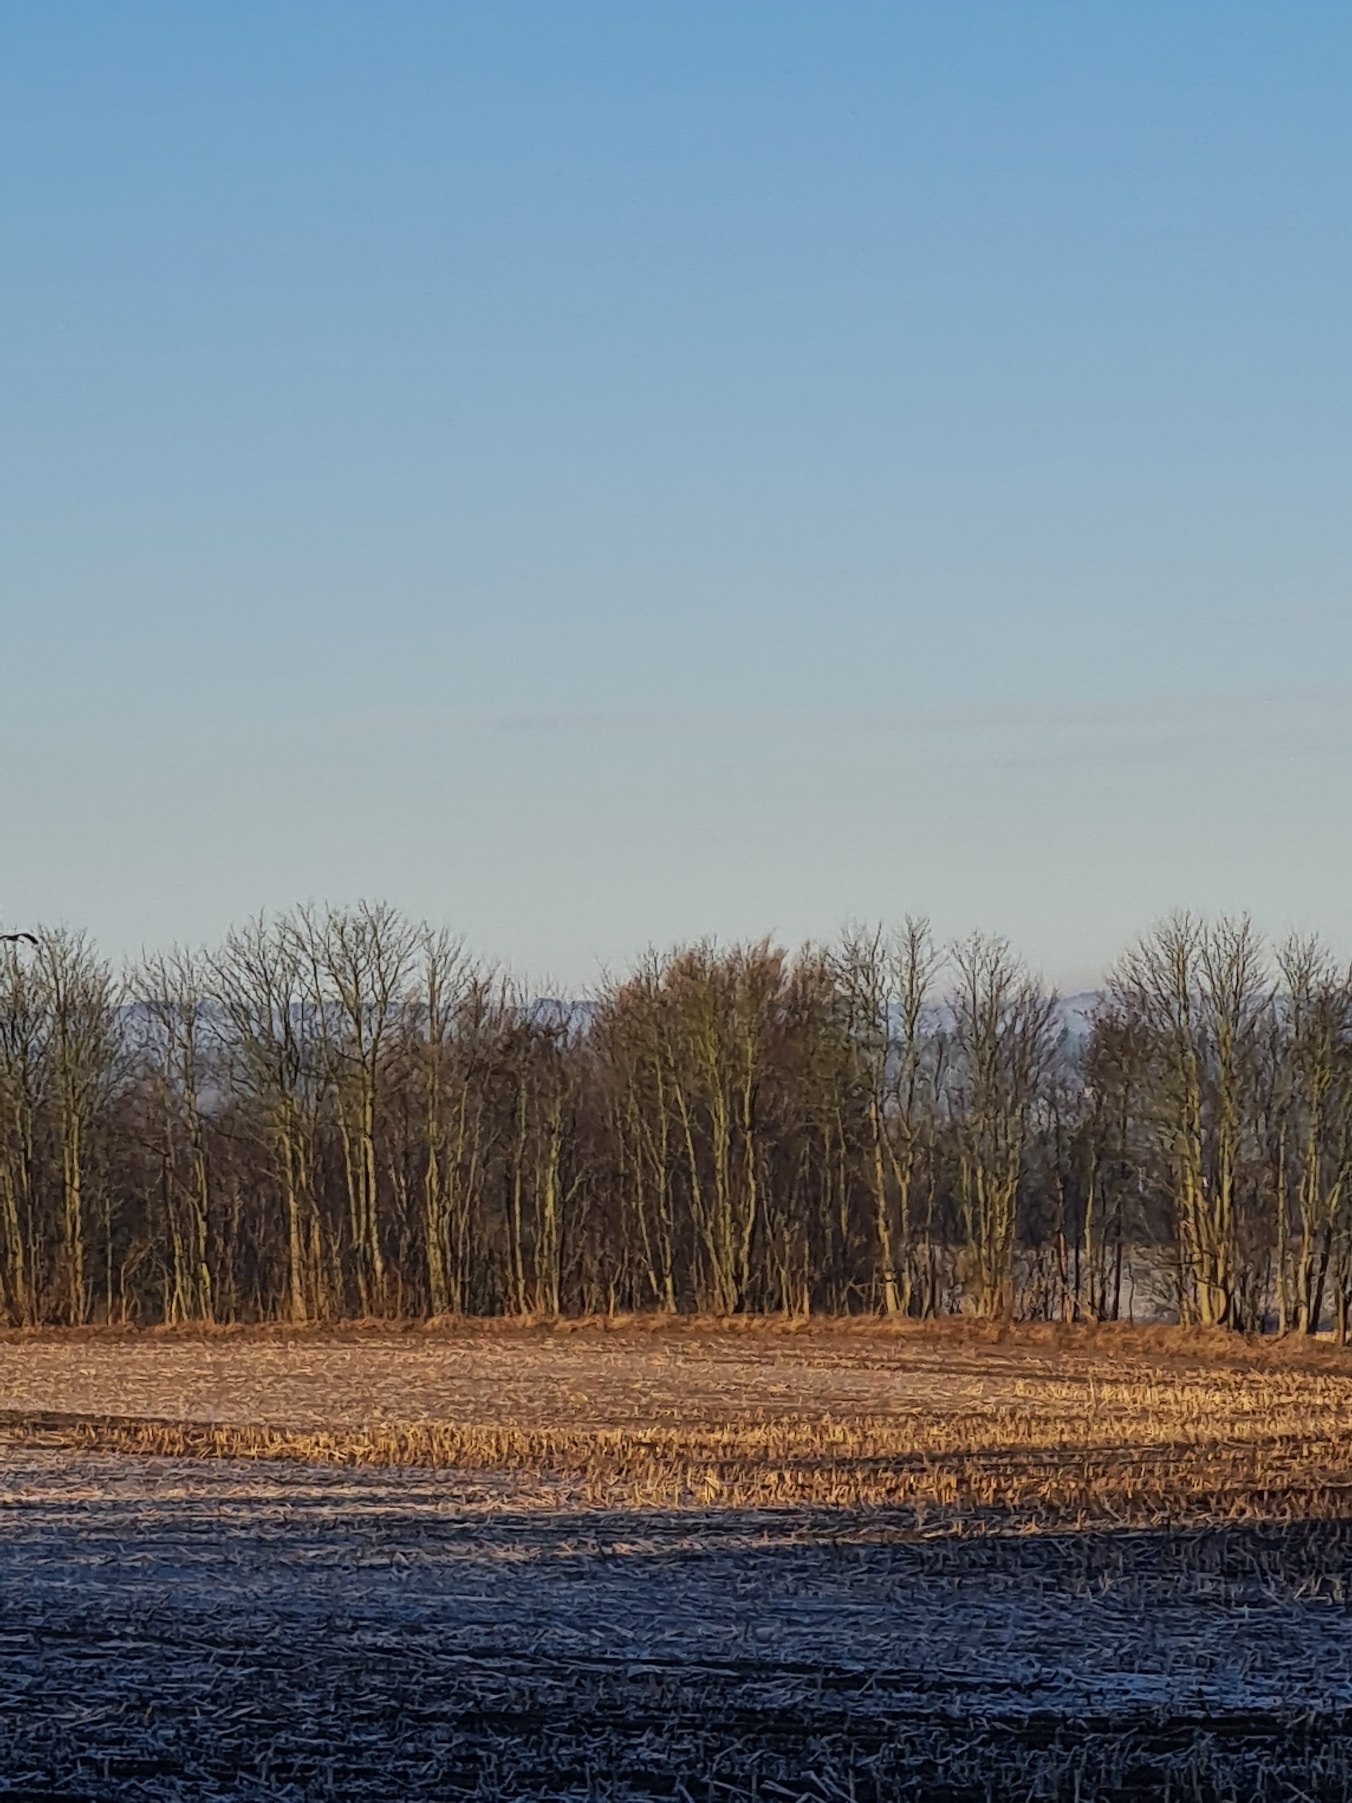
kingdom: Animalia
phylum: Chordata
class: Aves
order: Gruiformes
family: Gruidae
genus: Grus
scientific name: Grus grus
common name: Trane
